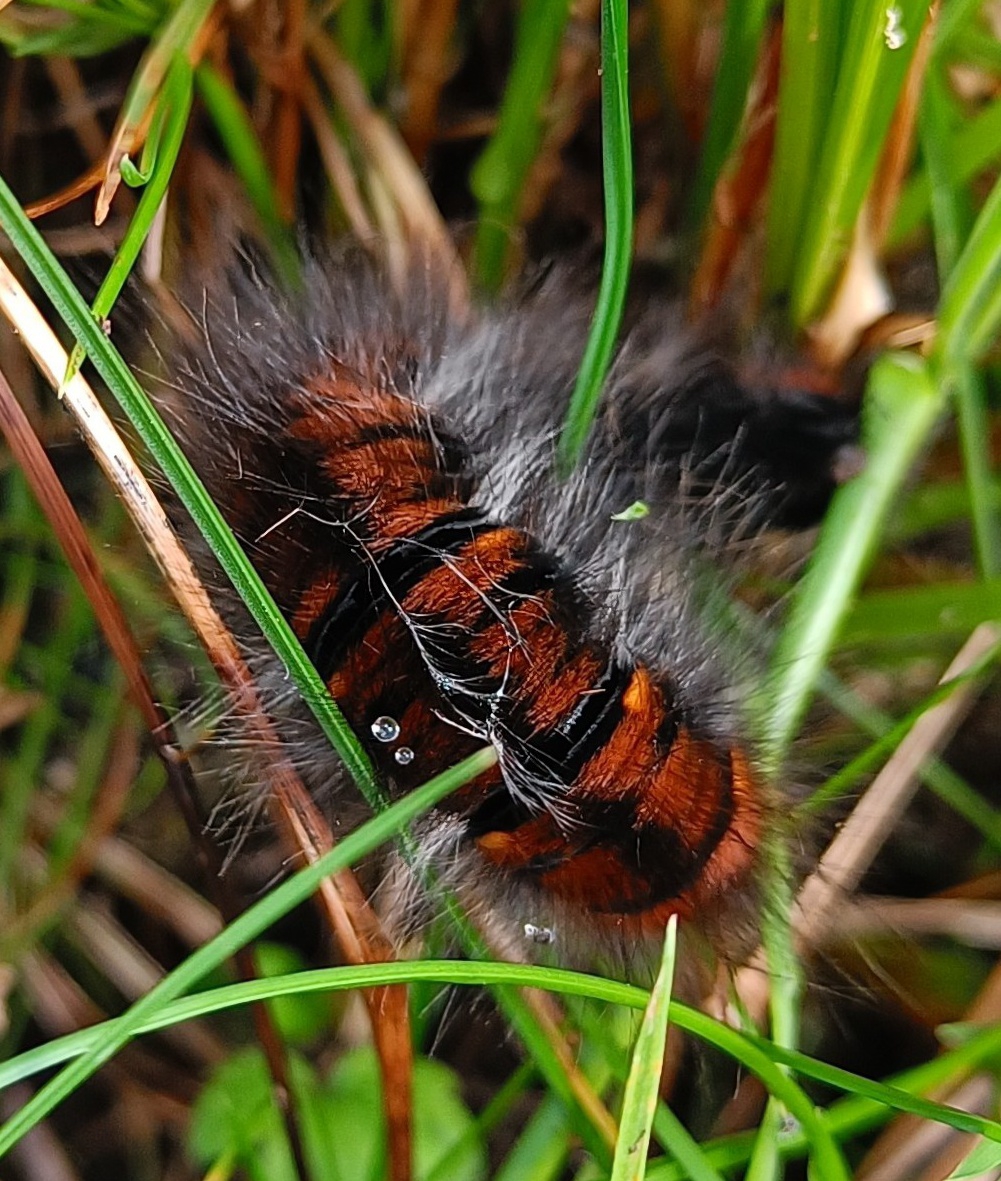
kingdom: Animalia
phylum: Arthropoda
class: Insecta
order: Lepidoptera
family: Lasiocampidae
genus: Macrothylacia
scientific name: Macrothylacia rubi
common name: Brombærspinder
